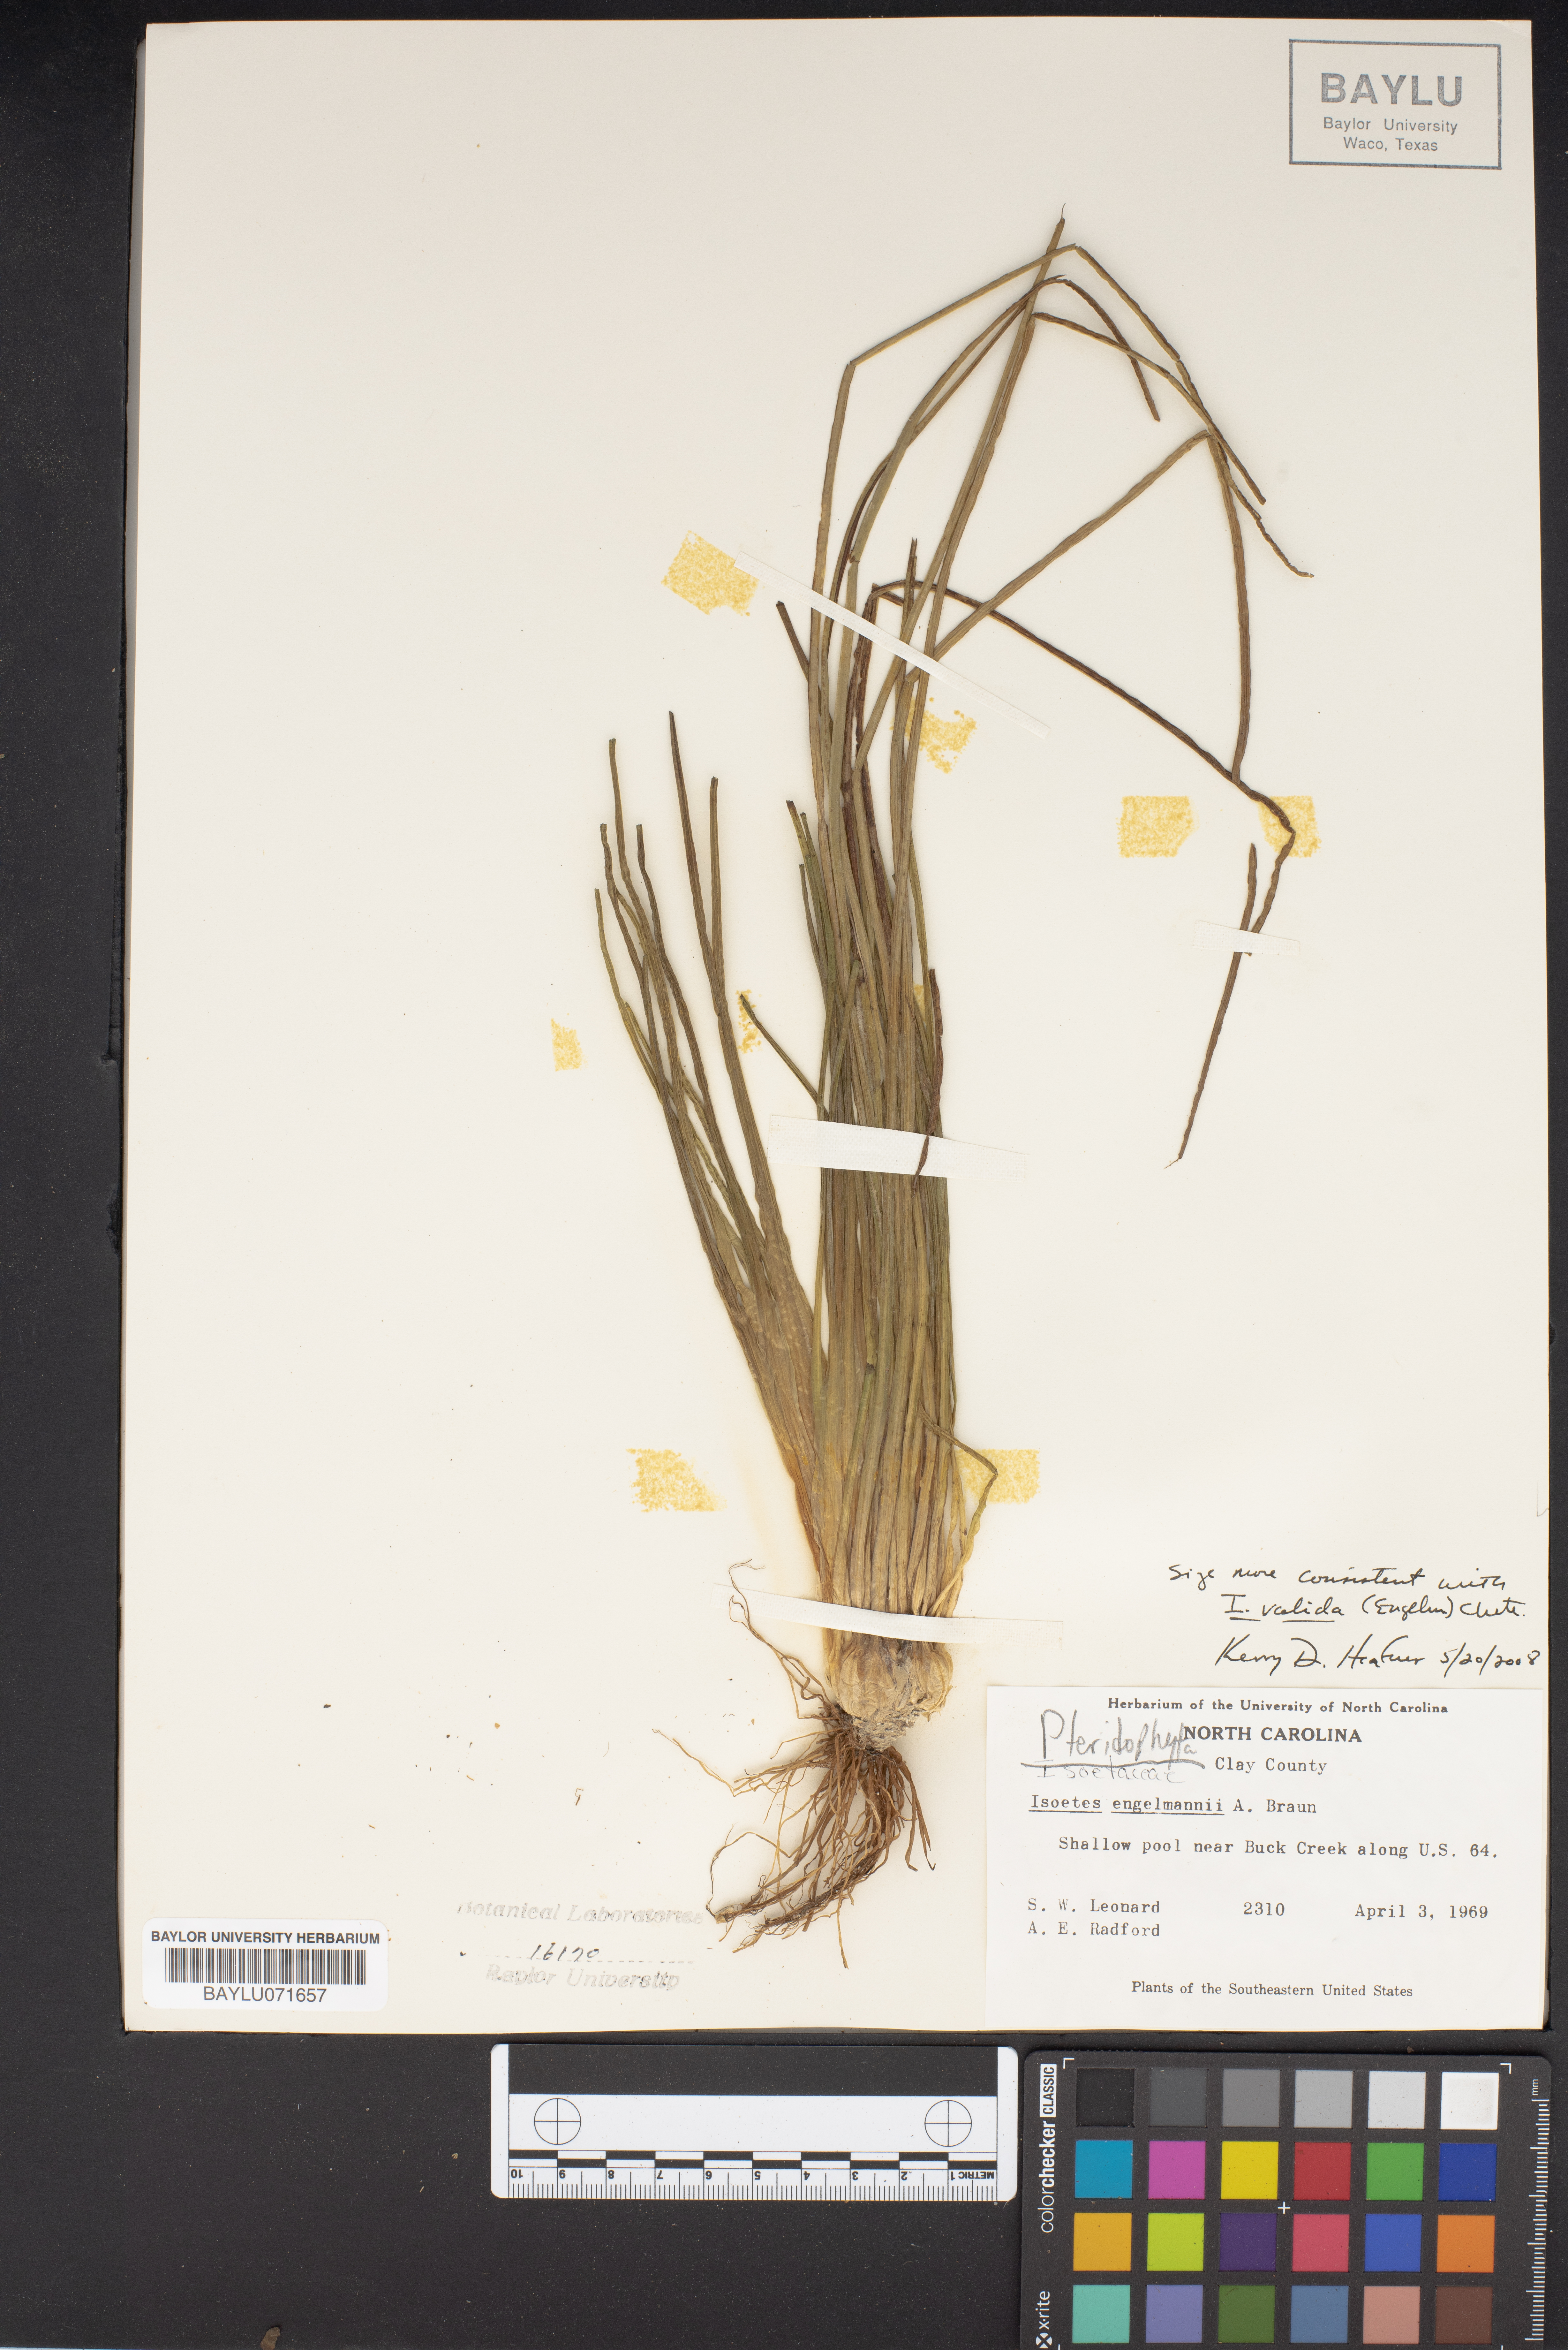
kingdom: Plantae
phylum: Tracheophyta
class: Lycopodiopsida
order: Isoetales
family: Isoetaceae
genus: Isoetes
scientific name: Isoetes
